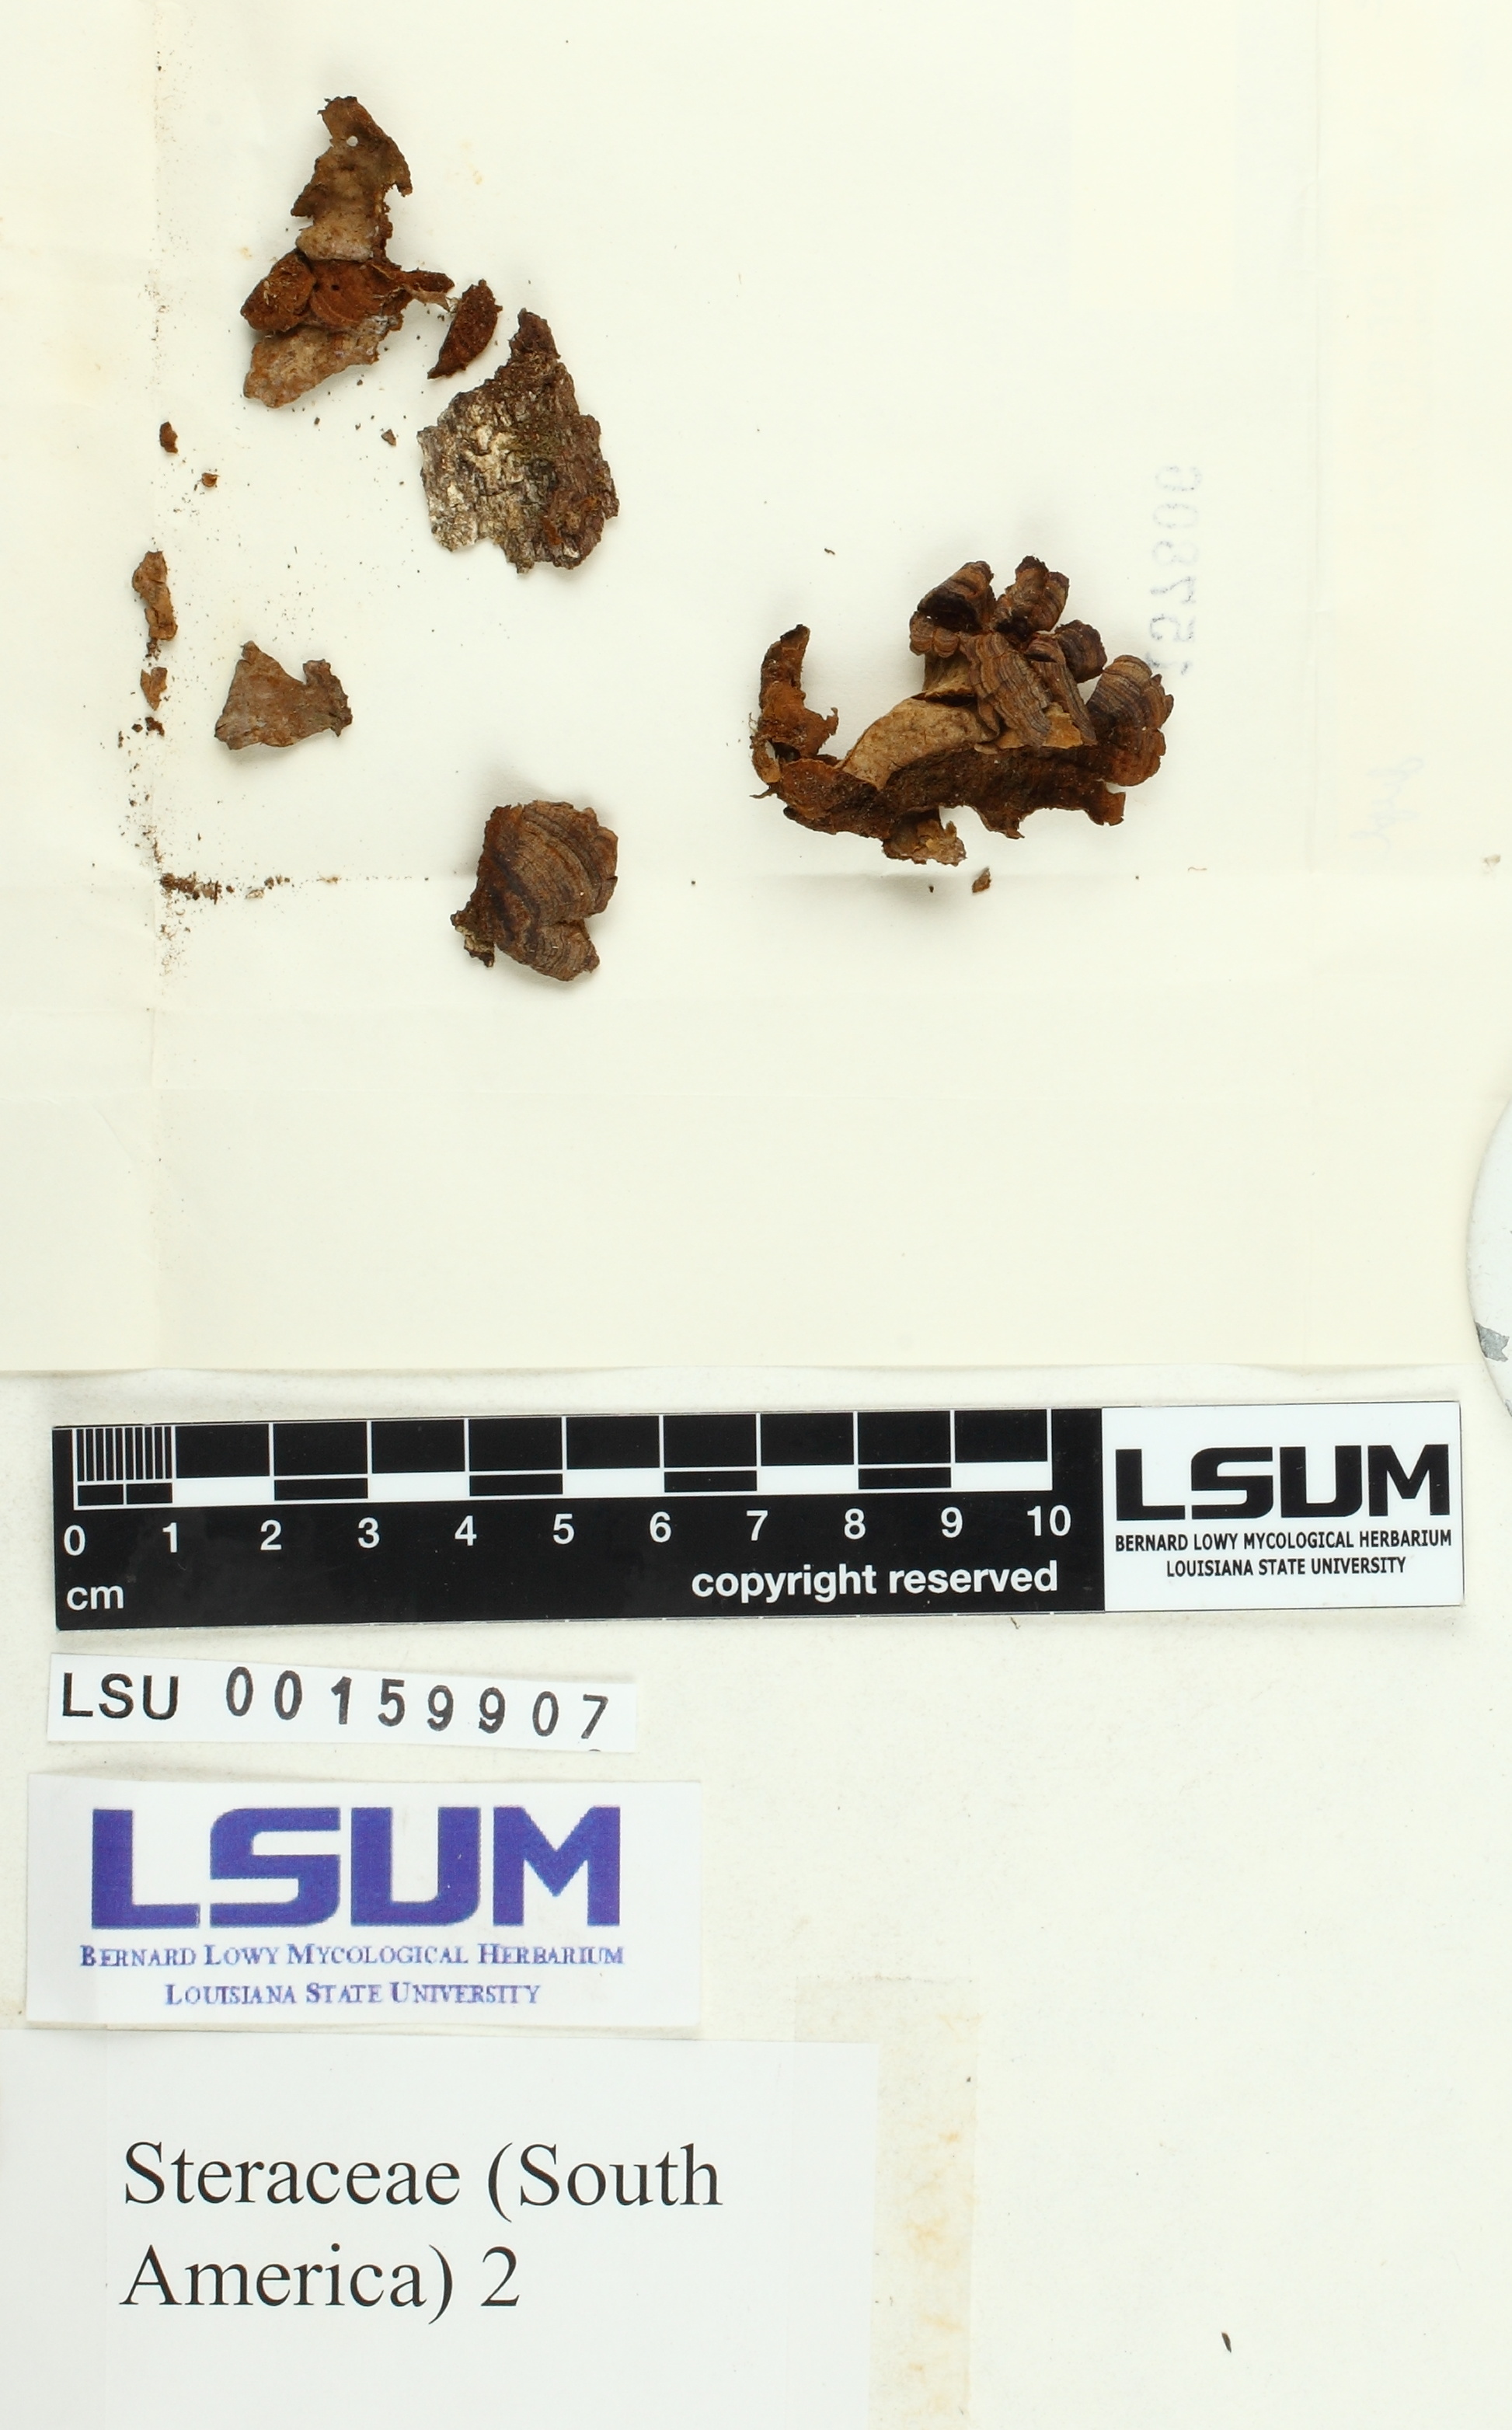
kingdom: Fungi
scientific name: Fungi
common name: Fungi
